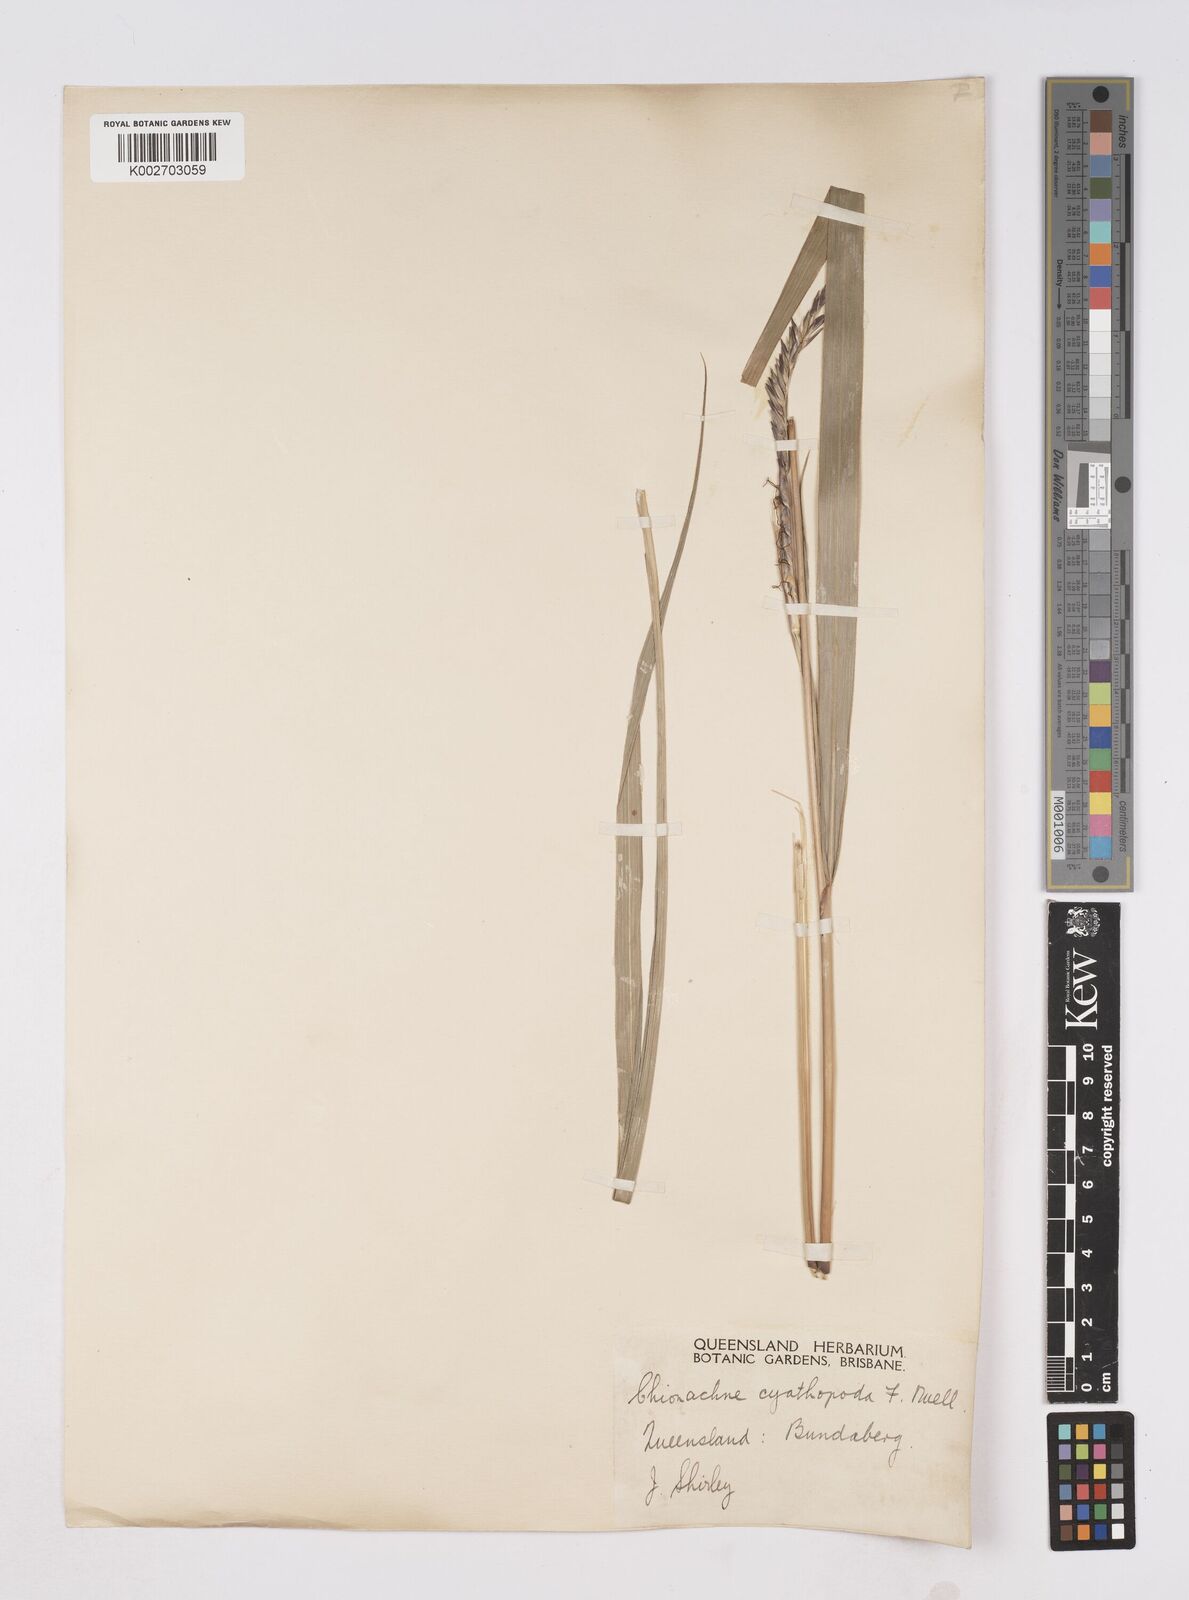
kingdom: Plantae
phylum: Tracheophyta
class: Liliopsida
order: Poales
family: Poaceae
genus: Polytoca
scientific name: Polytoca cyathopoda
